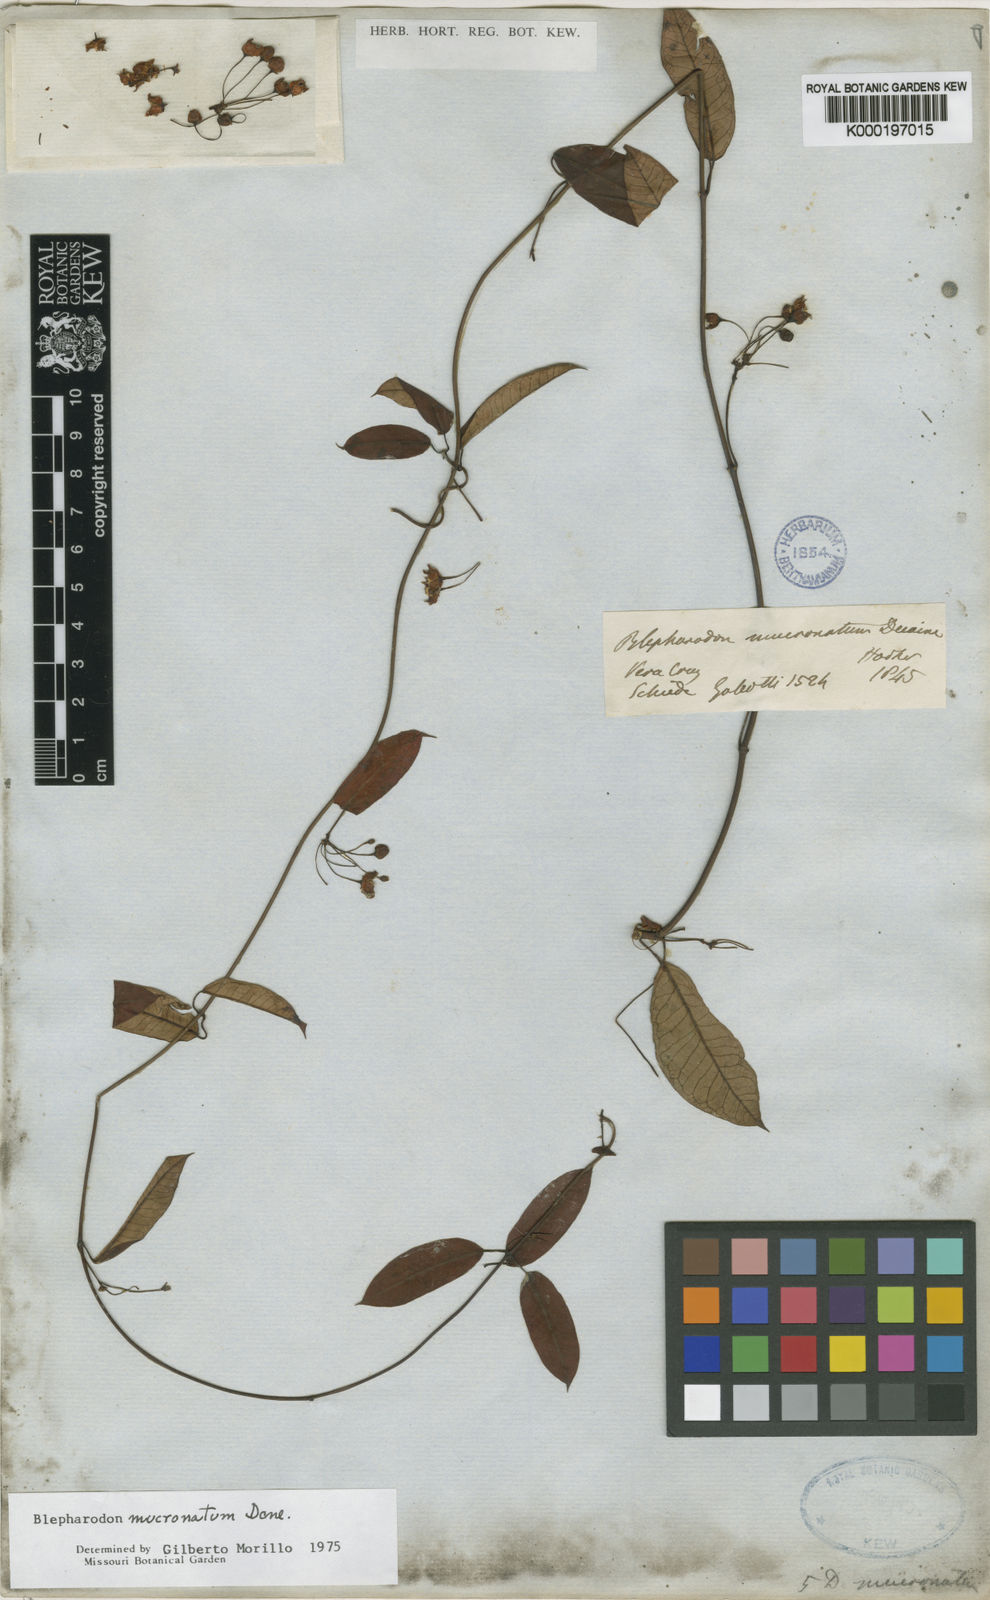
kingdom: Plantae
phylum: Tracheophyta
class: Magnoliopsida
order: Gentianales
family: Apocynaceae
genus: Vailia
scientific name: Vailia anomala
